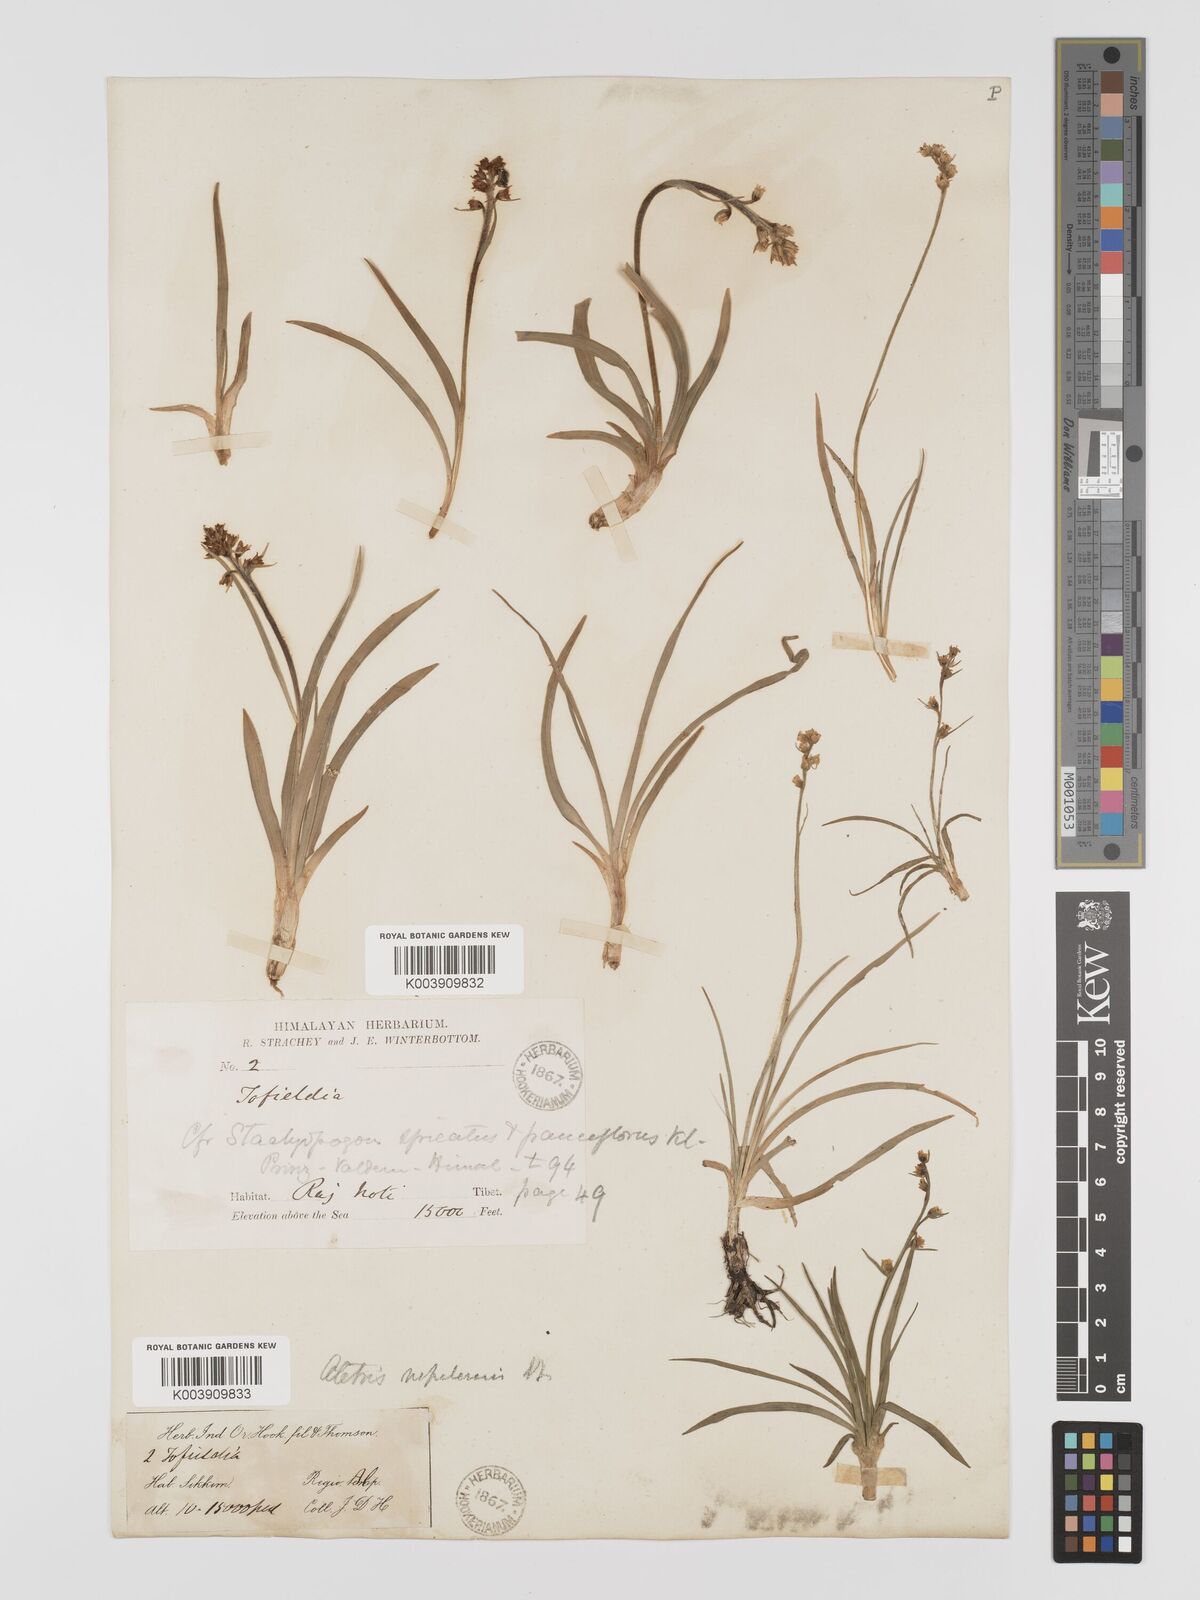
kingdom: Plantae
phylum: Tracheophyta
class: Liliopsida
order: Dioscoreales
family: Nartheciaceae
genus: Aletris
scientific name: Aletris pauciflora
